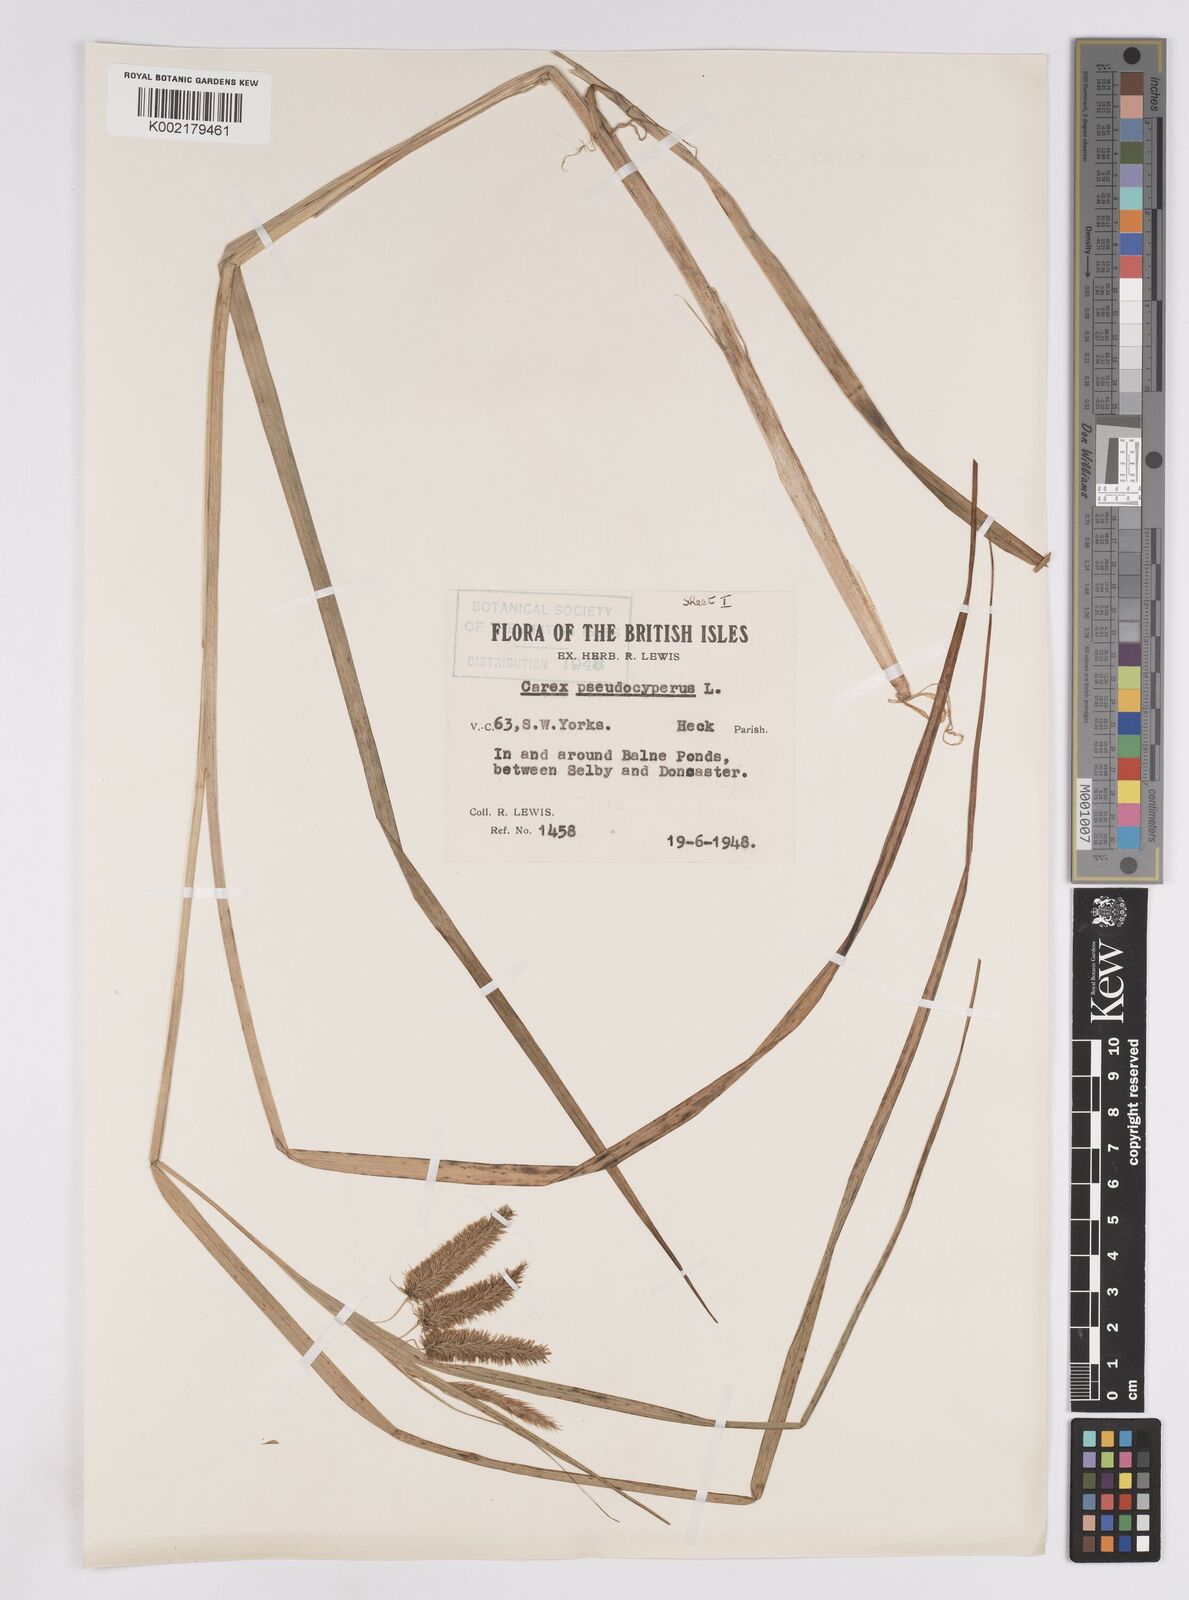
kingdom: Plantae
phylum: Tracheophyta
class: Liliopsida
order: Poales
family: Cyperaceae
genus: Carex
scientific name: Carex pseudocyperus
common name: Cyperus sedge
